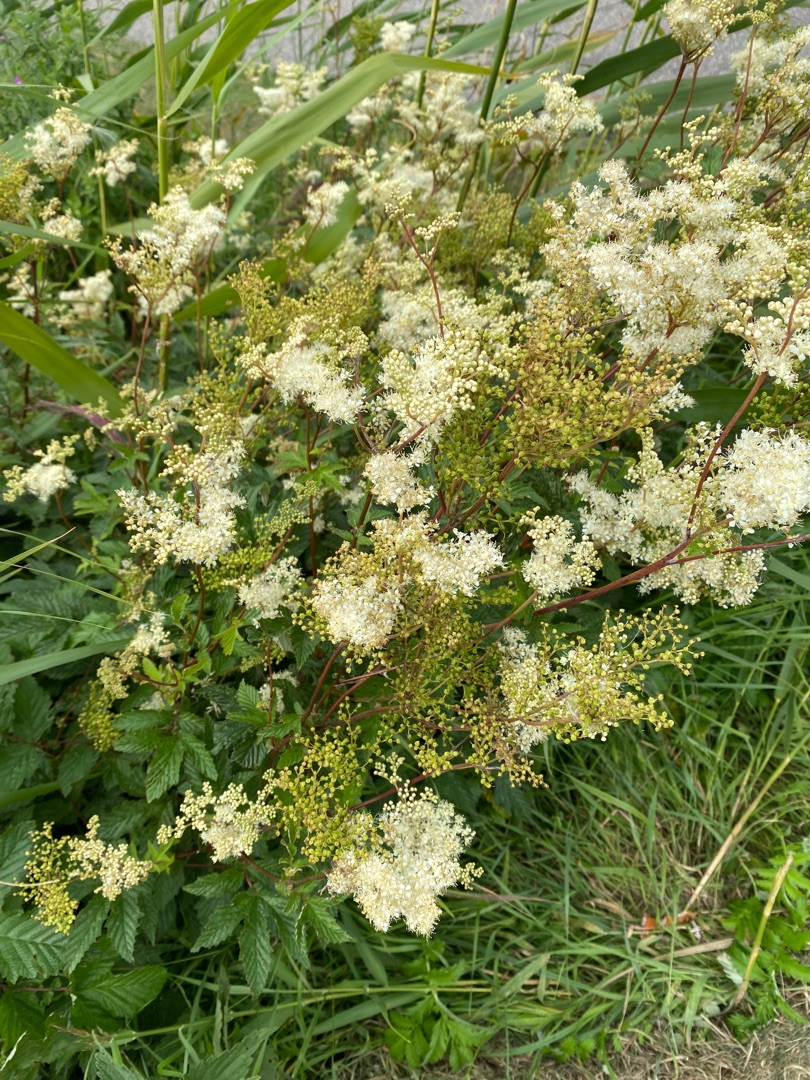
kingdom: Plantae
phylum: Tracheophyta
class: Magnoliopsida
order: Rosales
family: Rosaceae
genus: Filipendula
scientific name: Filipendula ulmaria
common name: Almindelig mjødurt
